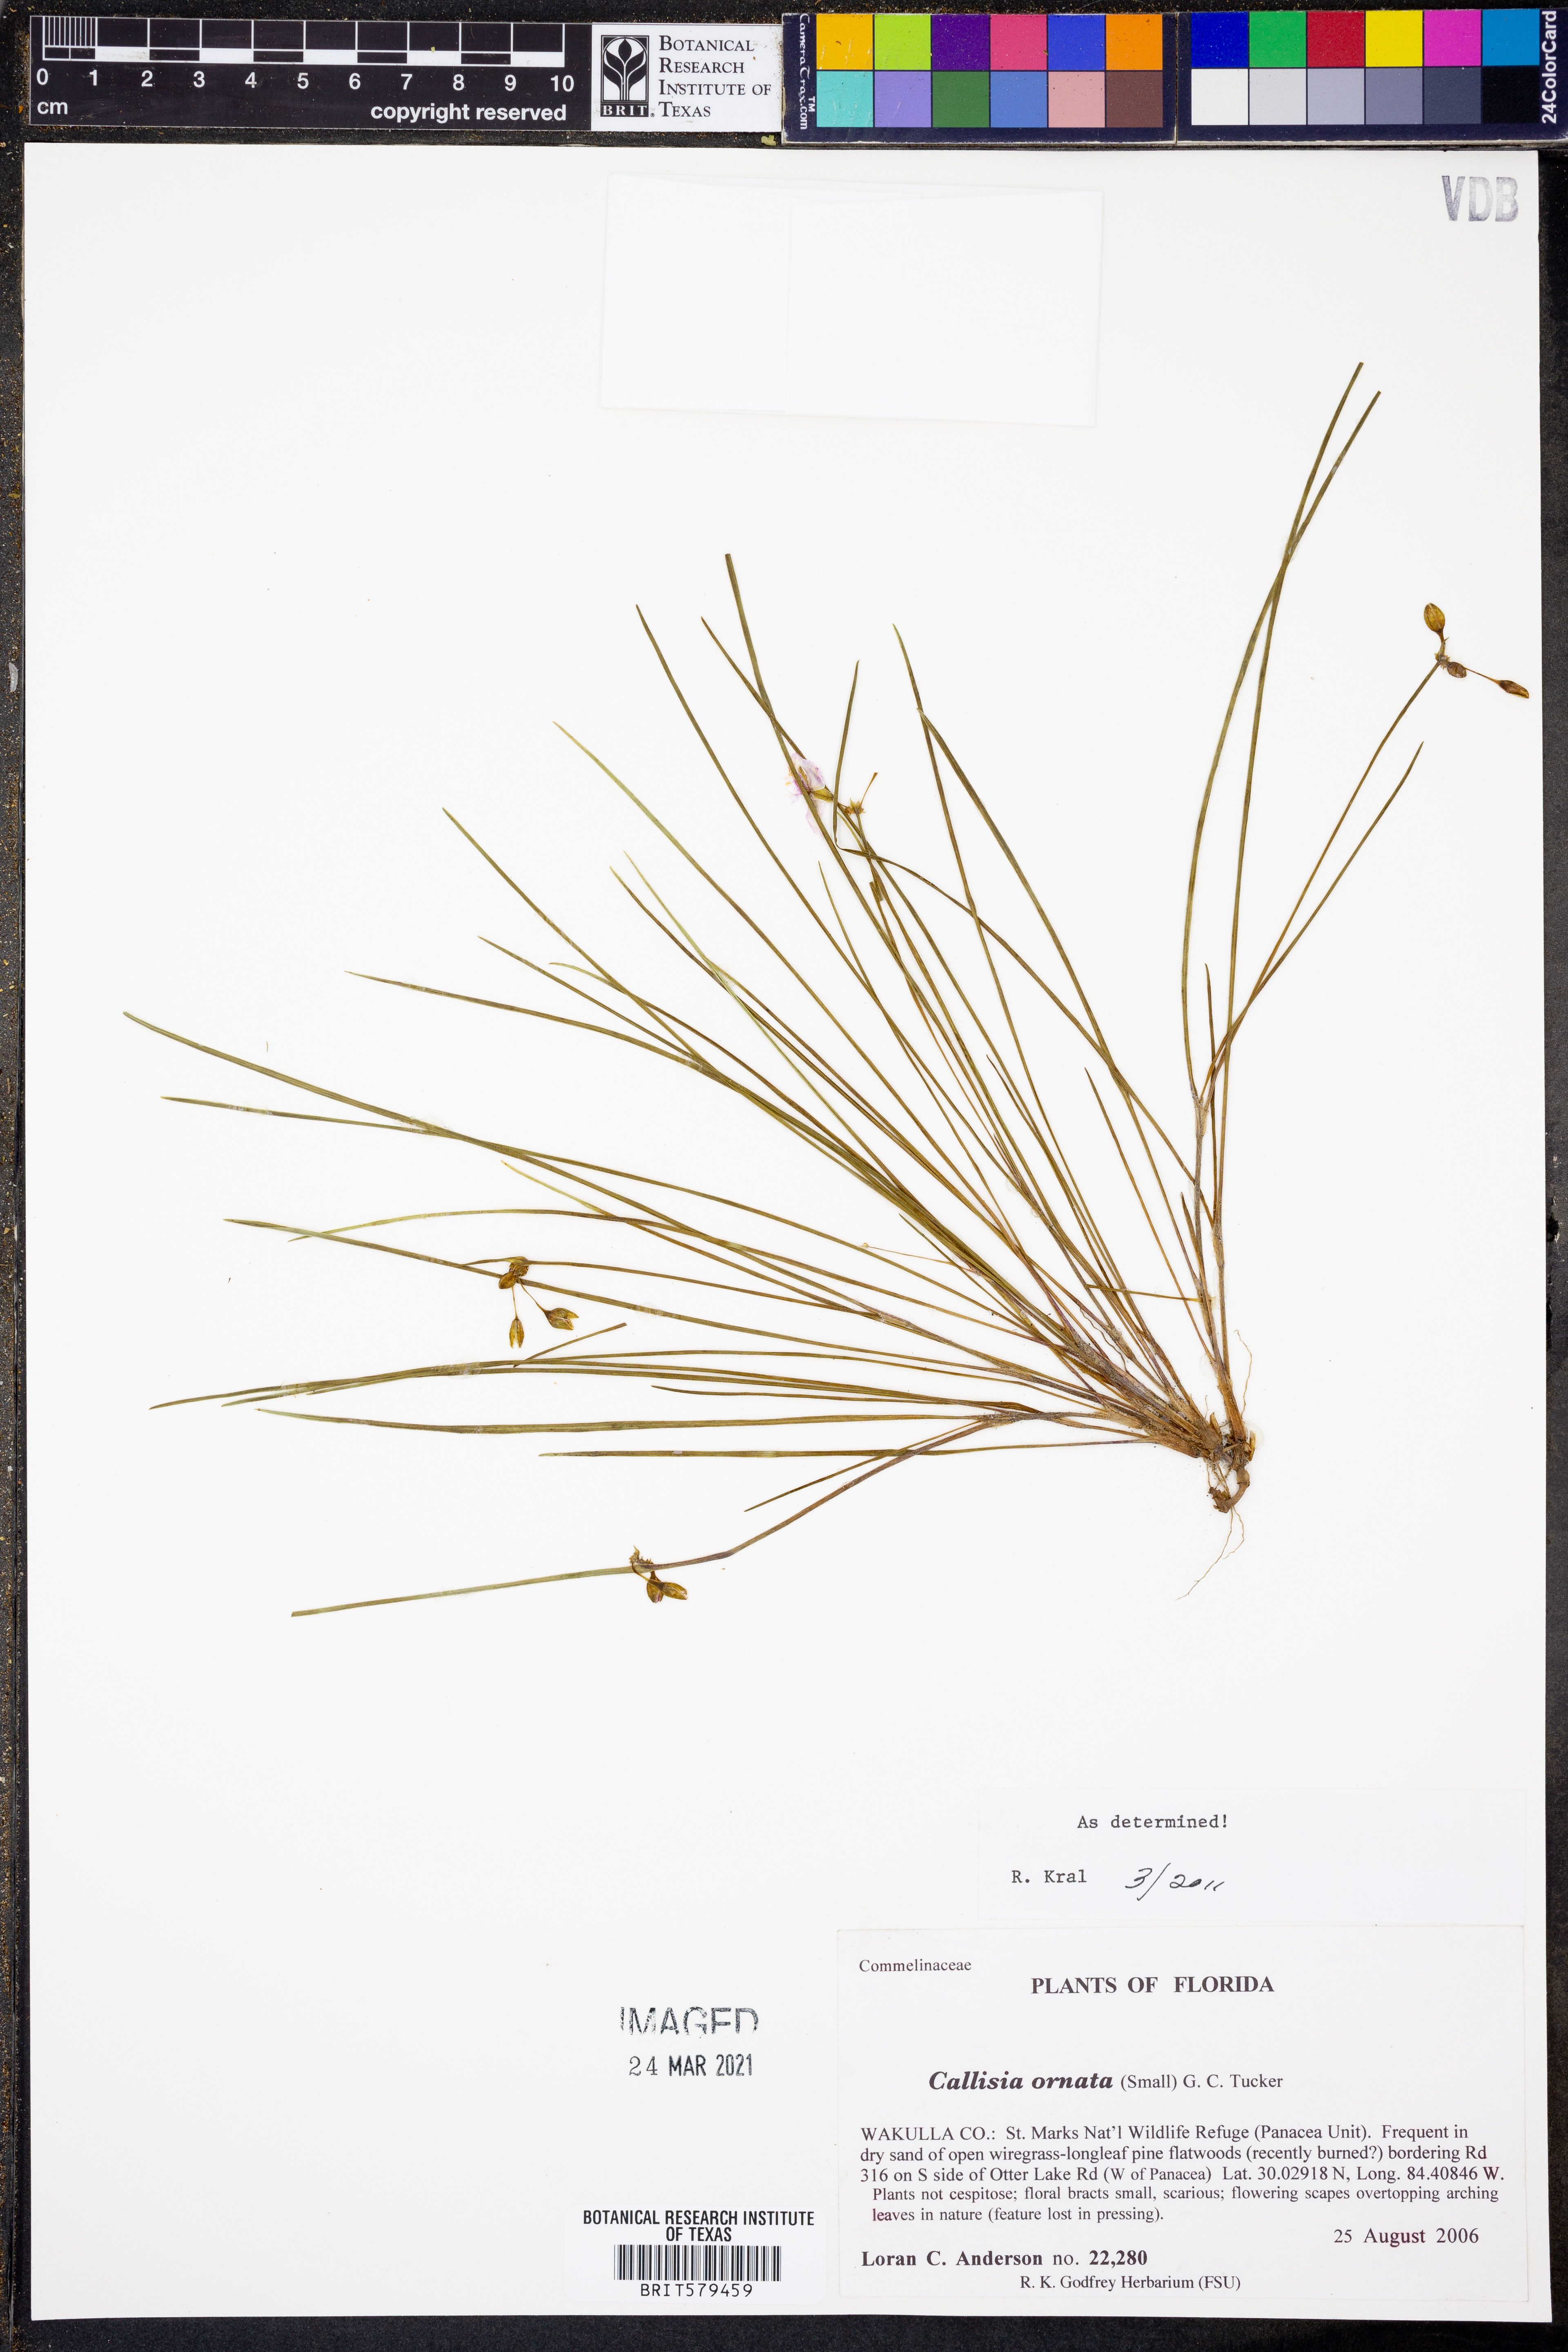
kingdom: Plantae
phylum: Tracheophyta
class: Liliopsida
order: Commelinales
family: Commelinaceae
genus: Callisia
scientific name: Callisia ornata
